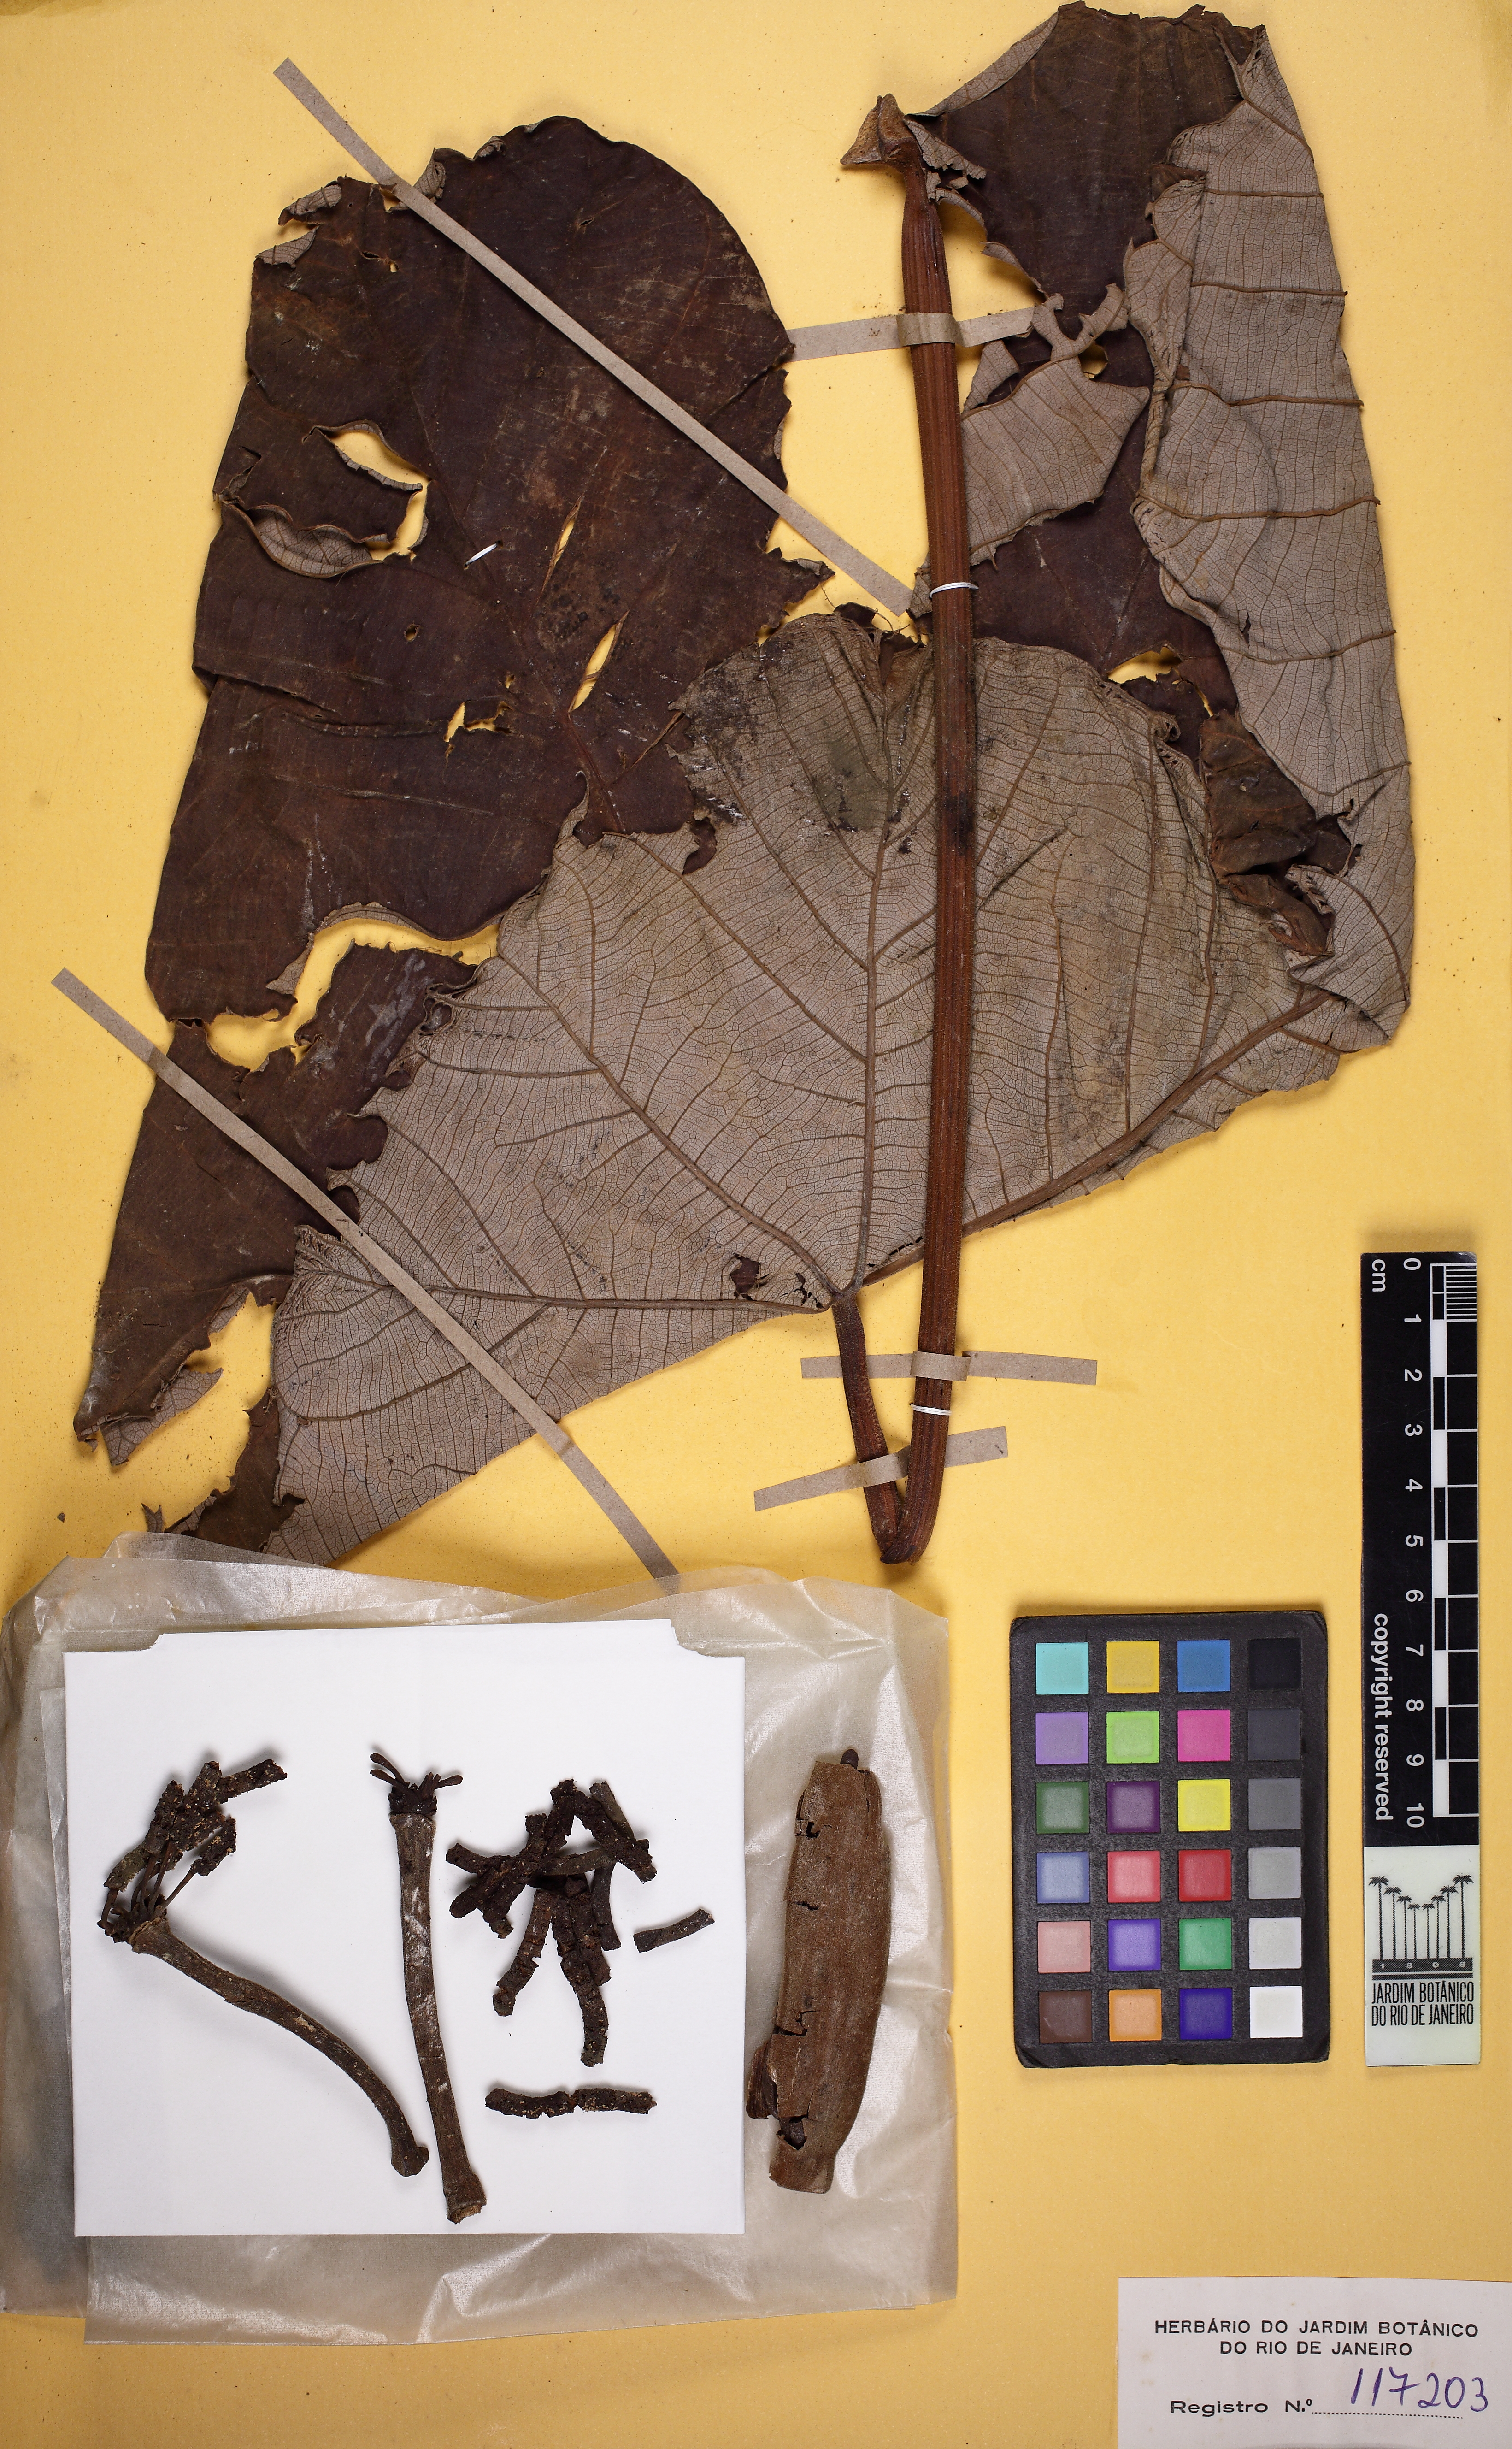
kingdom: Plantae
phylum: Tracheophyta
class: Magnoliopsida
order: Rosales
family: Urticaceae
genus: Cecropia
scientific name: Cecropia purpurascens
